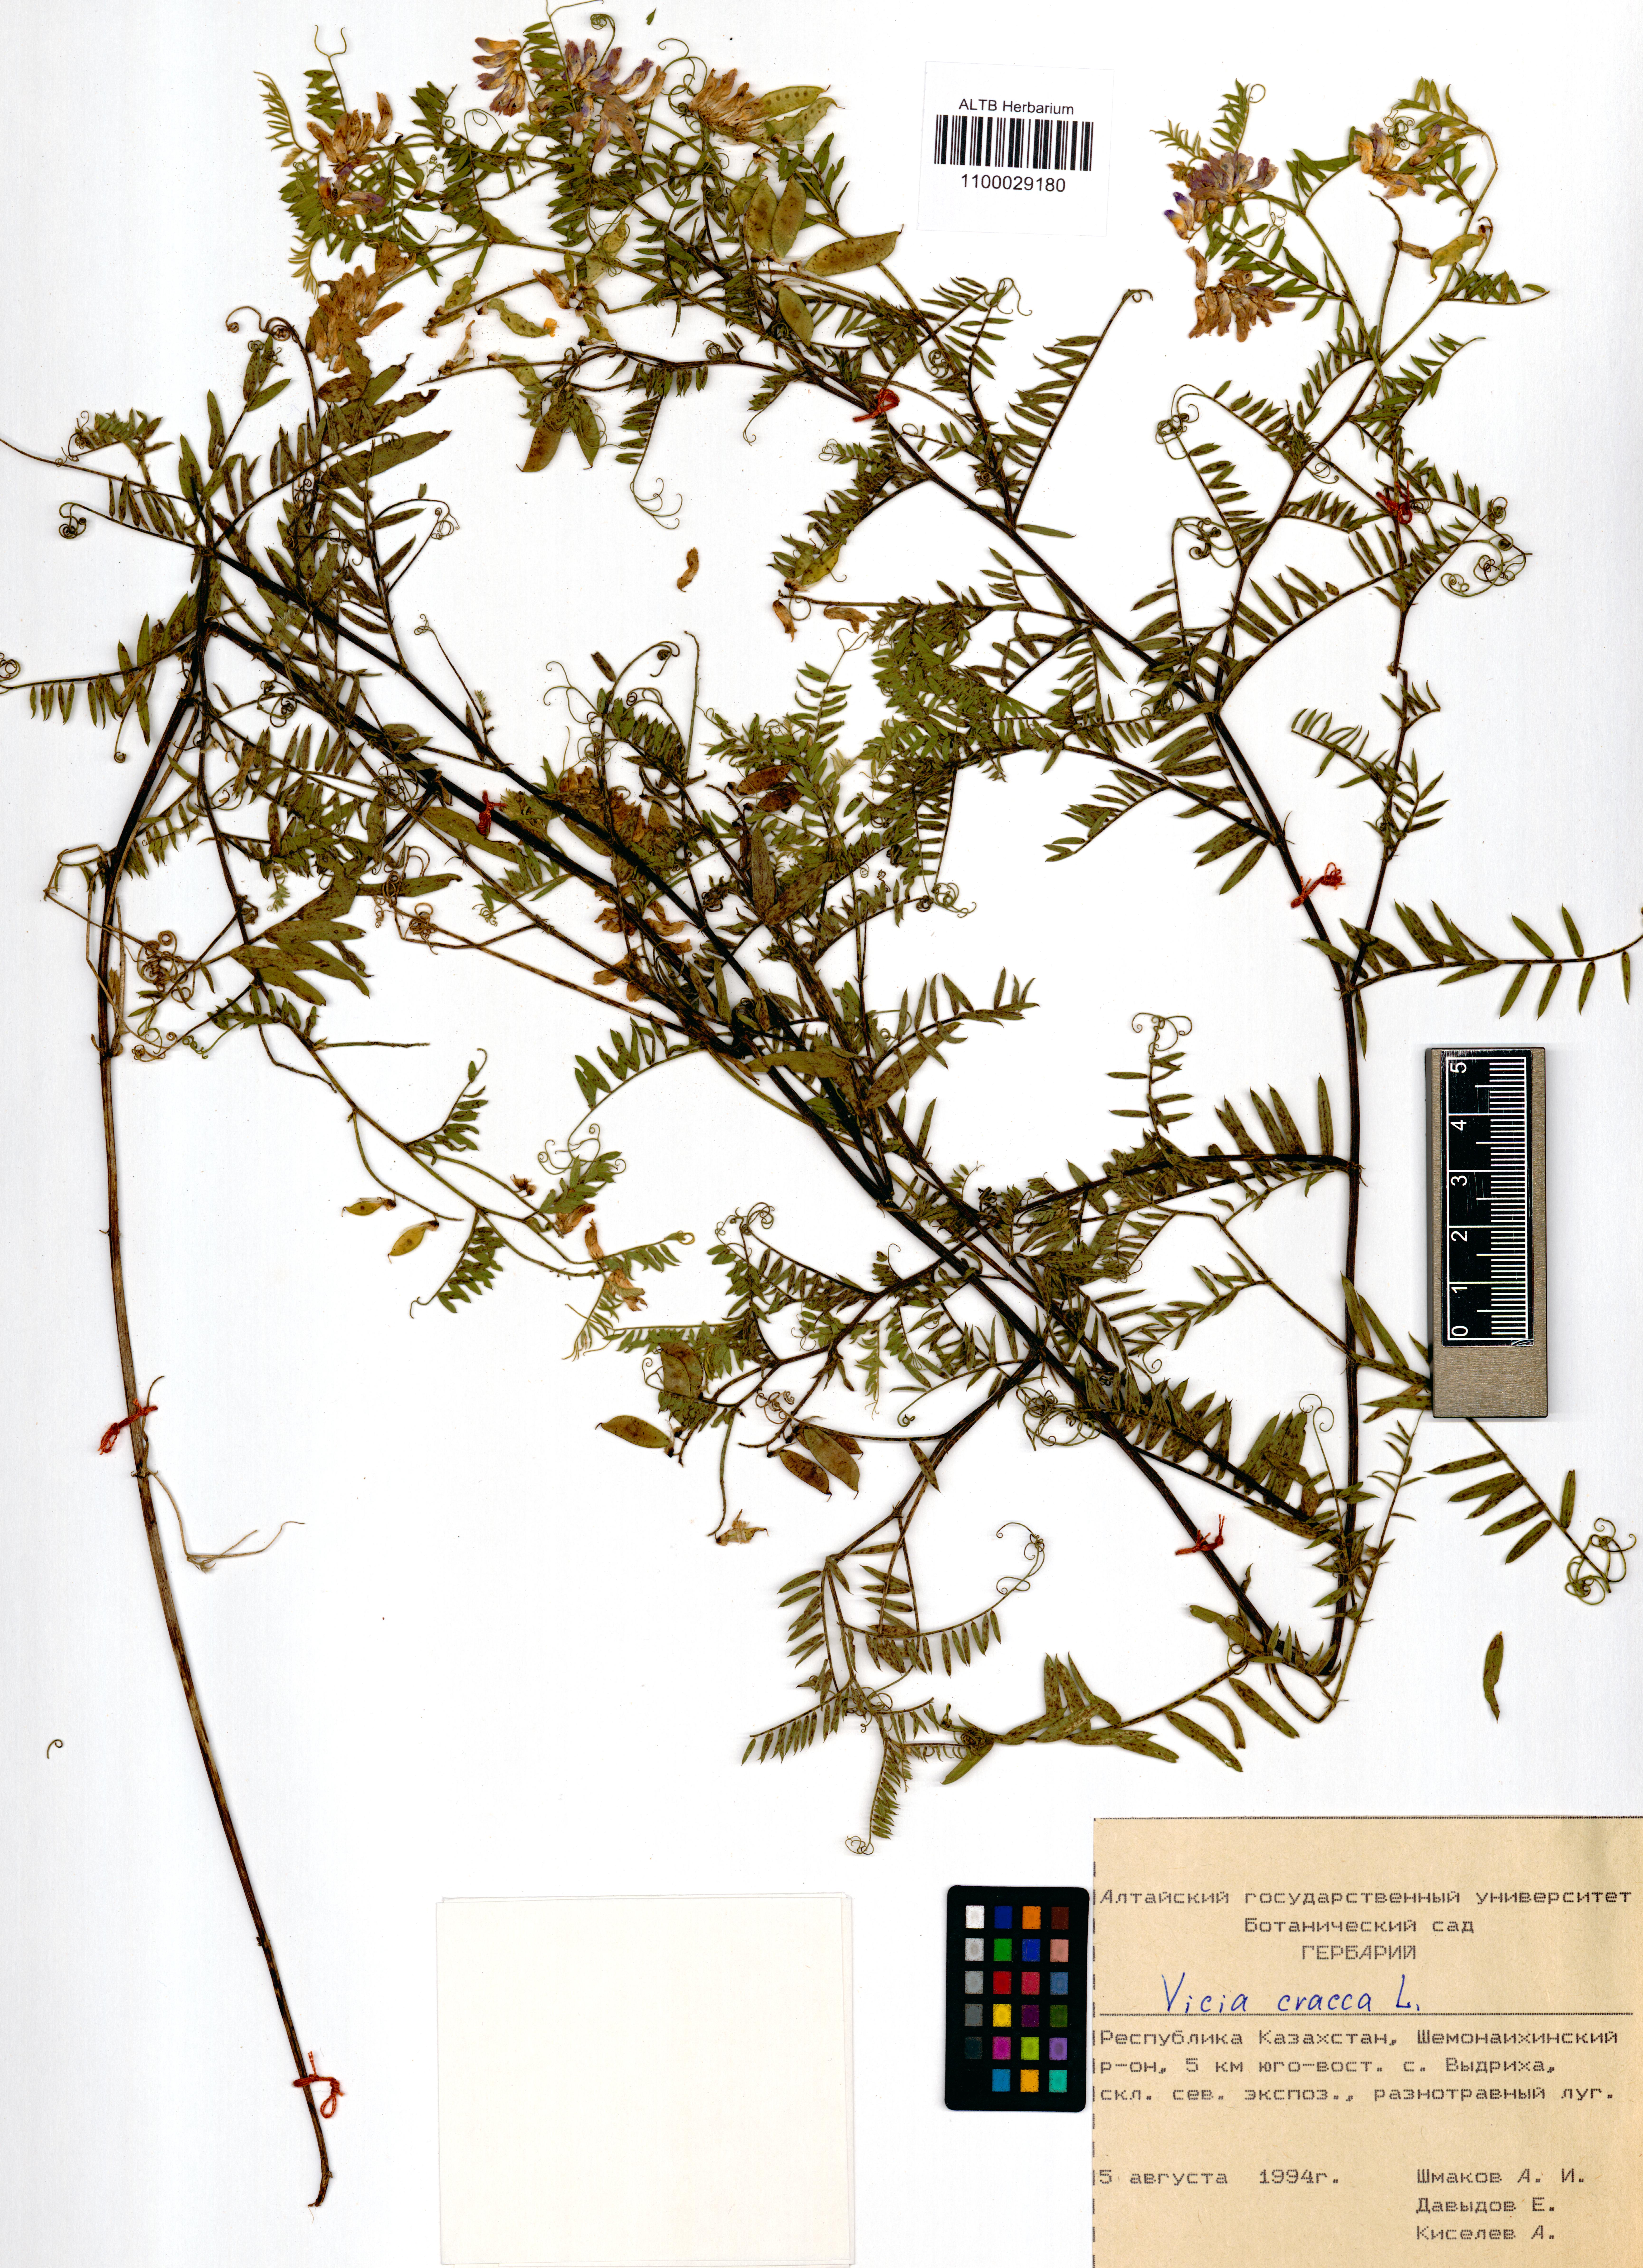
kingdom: Plantae
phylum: Tracheophyta
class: Magnoliopsida
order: Fabales
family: Fabaceae
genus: Vicia
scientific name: Vicia cracca
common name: Bird vetch
